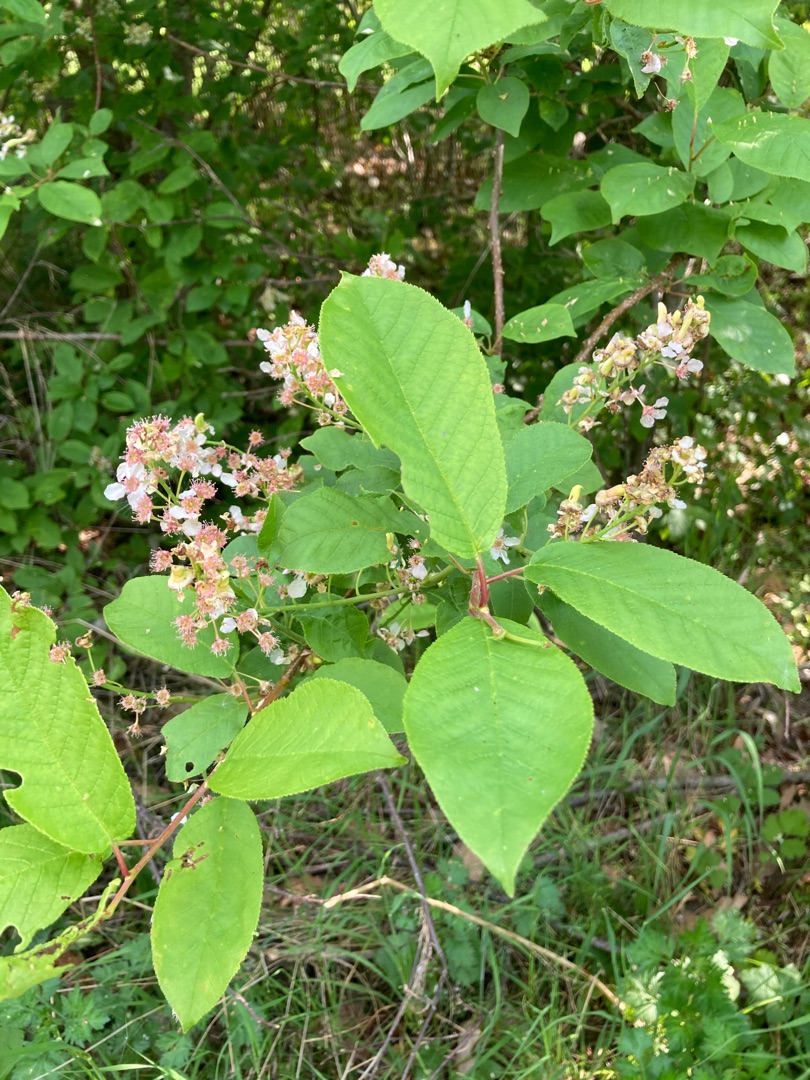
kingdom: Plantae
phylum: Tracheophyta
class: Magnoliopsida
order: Rosales
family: Rosaceae
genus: Prunus
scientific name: Prunus padus
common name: Almindelig hæg
